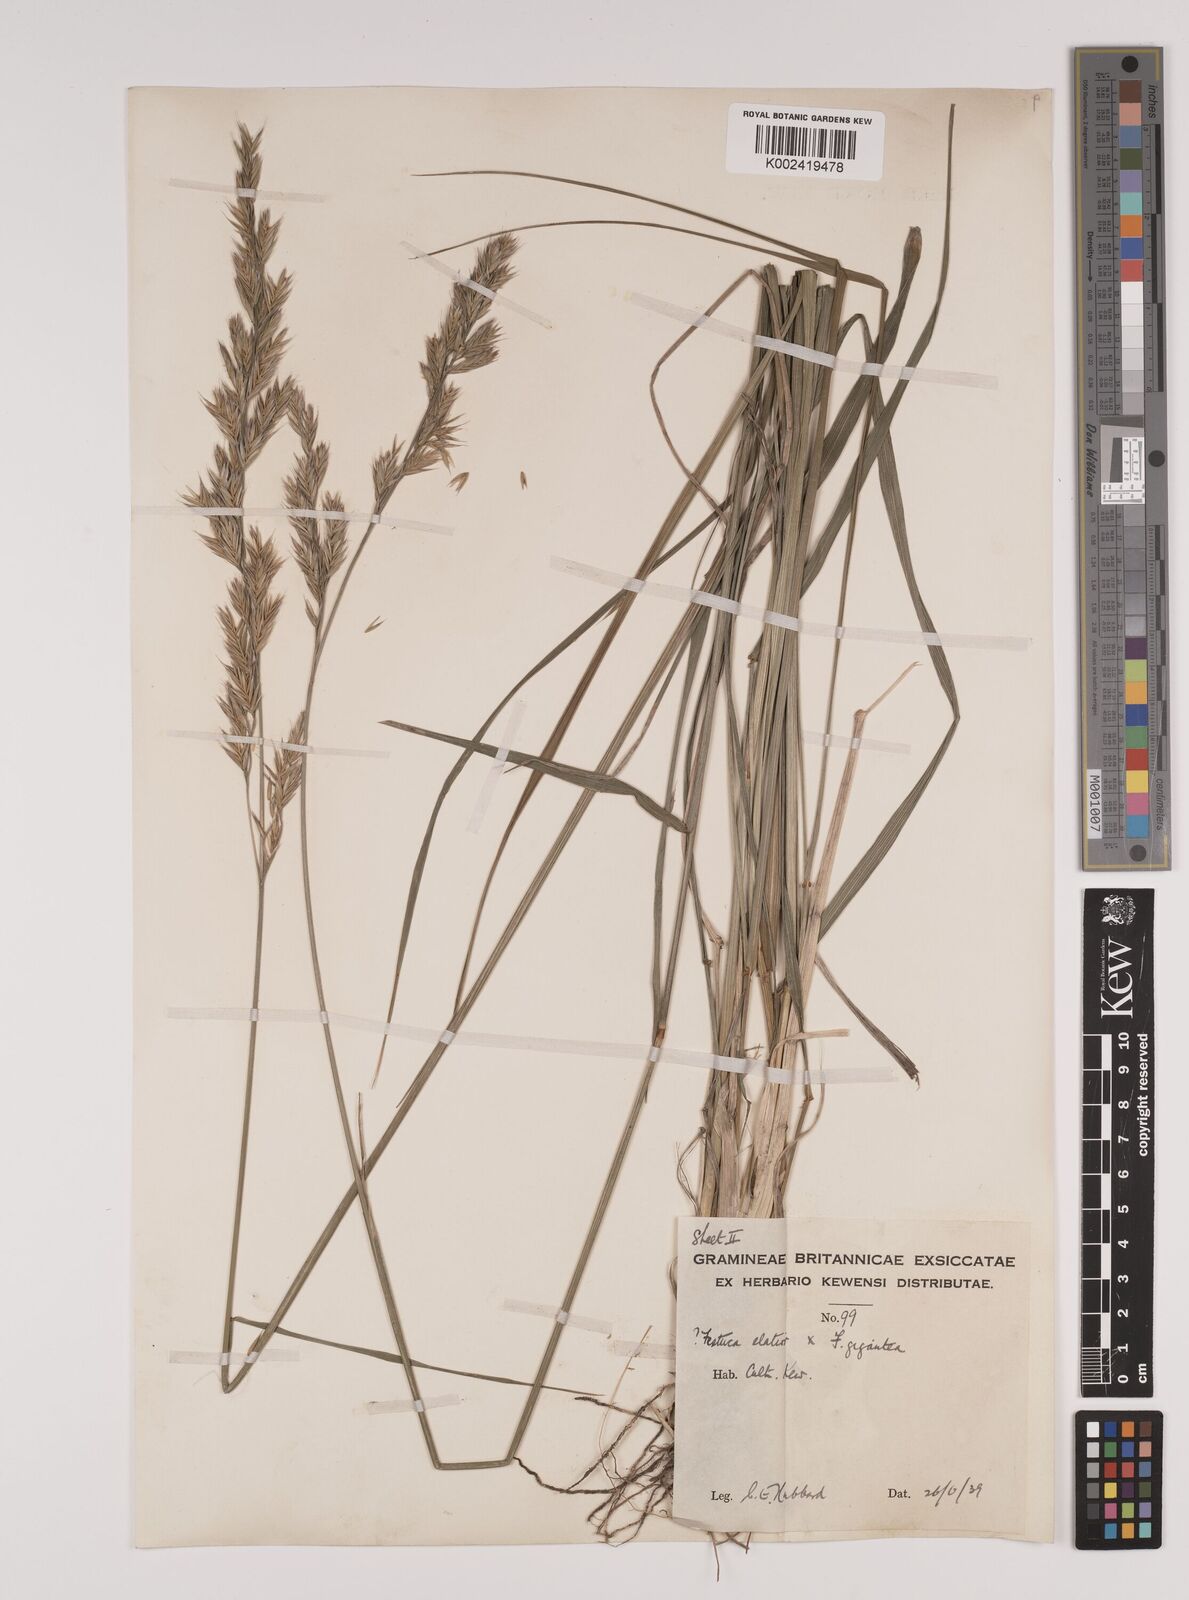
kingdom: Plantae
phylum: Tracheophyta
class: Liliopsida
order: Poales
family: Poaceae
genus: Lolium
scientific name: Lolium giganteum
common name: Giant fescue
